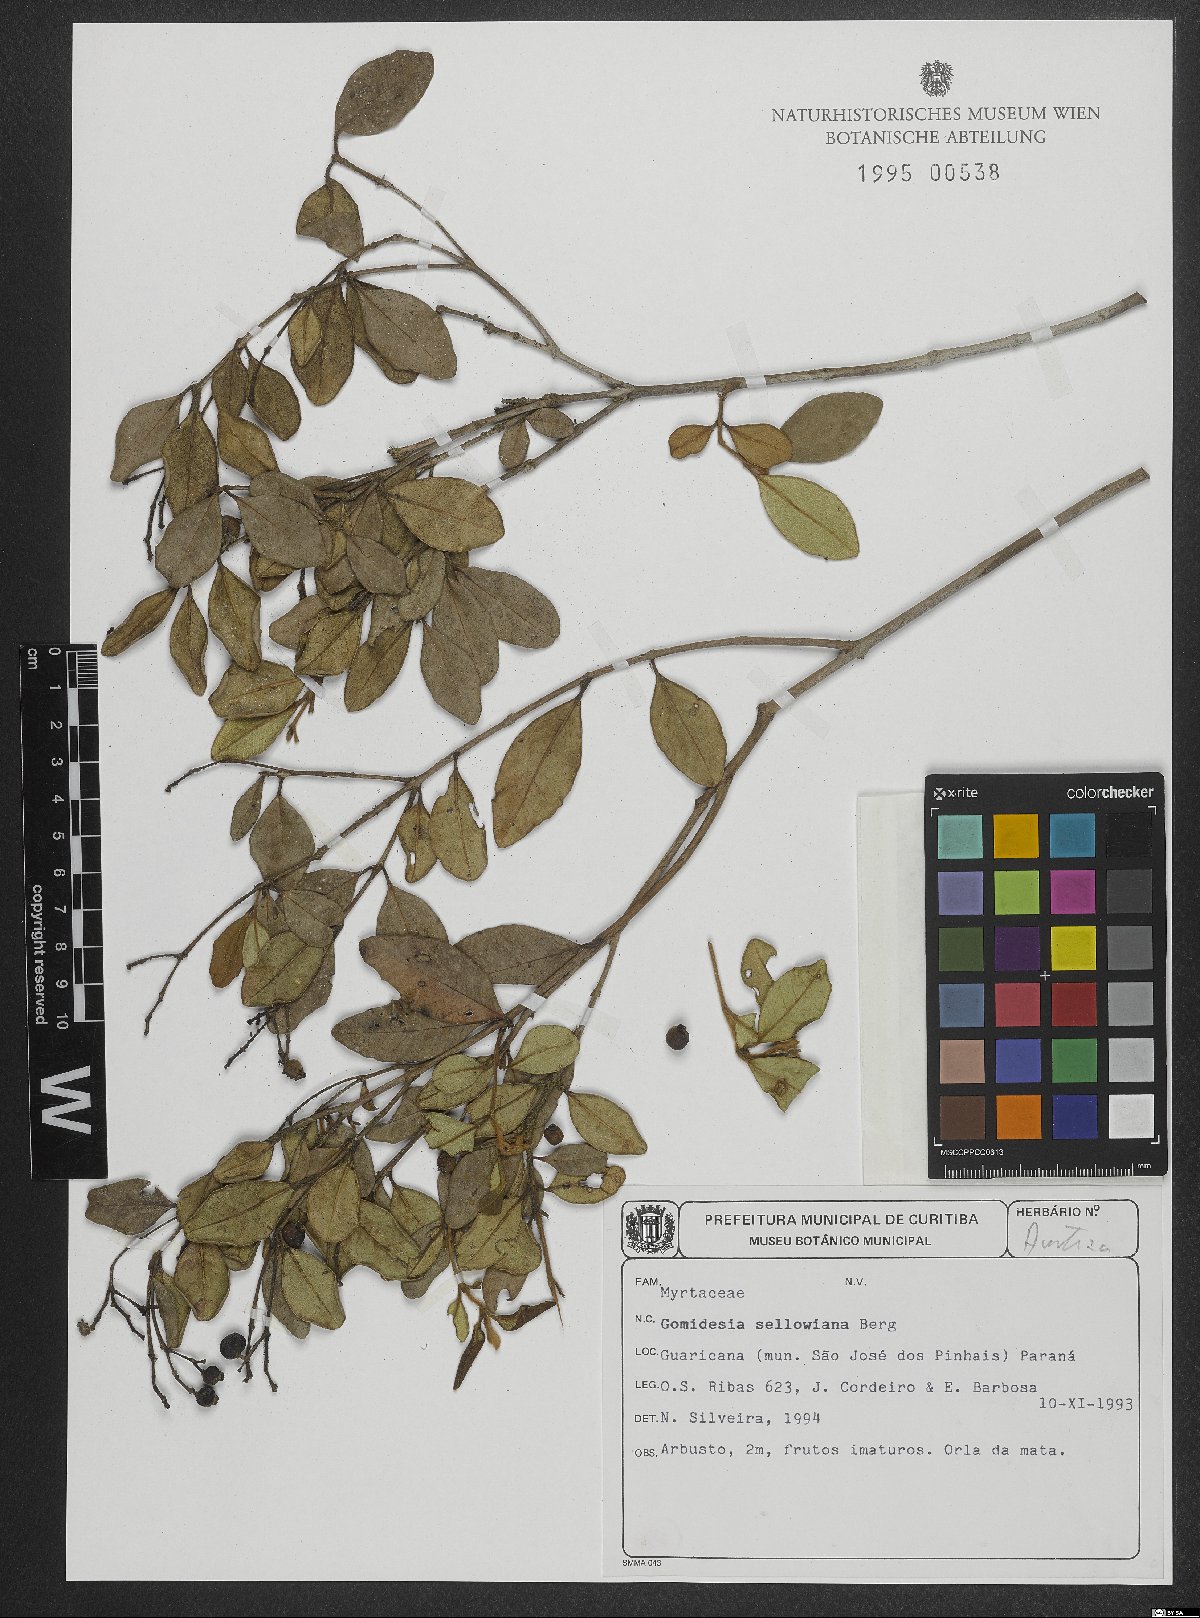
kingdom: Plantae
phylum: Tracheophyta
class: Magnoliopsida
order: Myrtales
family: Myrtaceae
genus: Myrcia
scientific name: Myrcia hartwegiana
